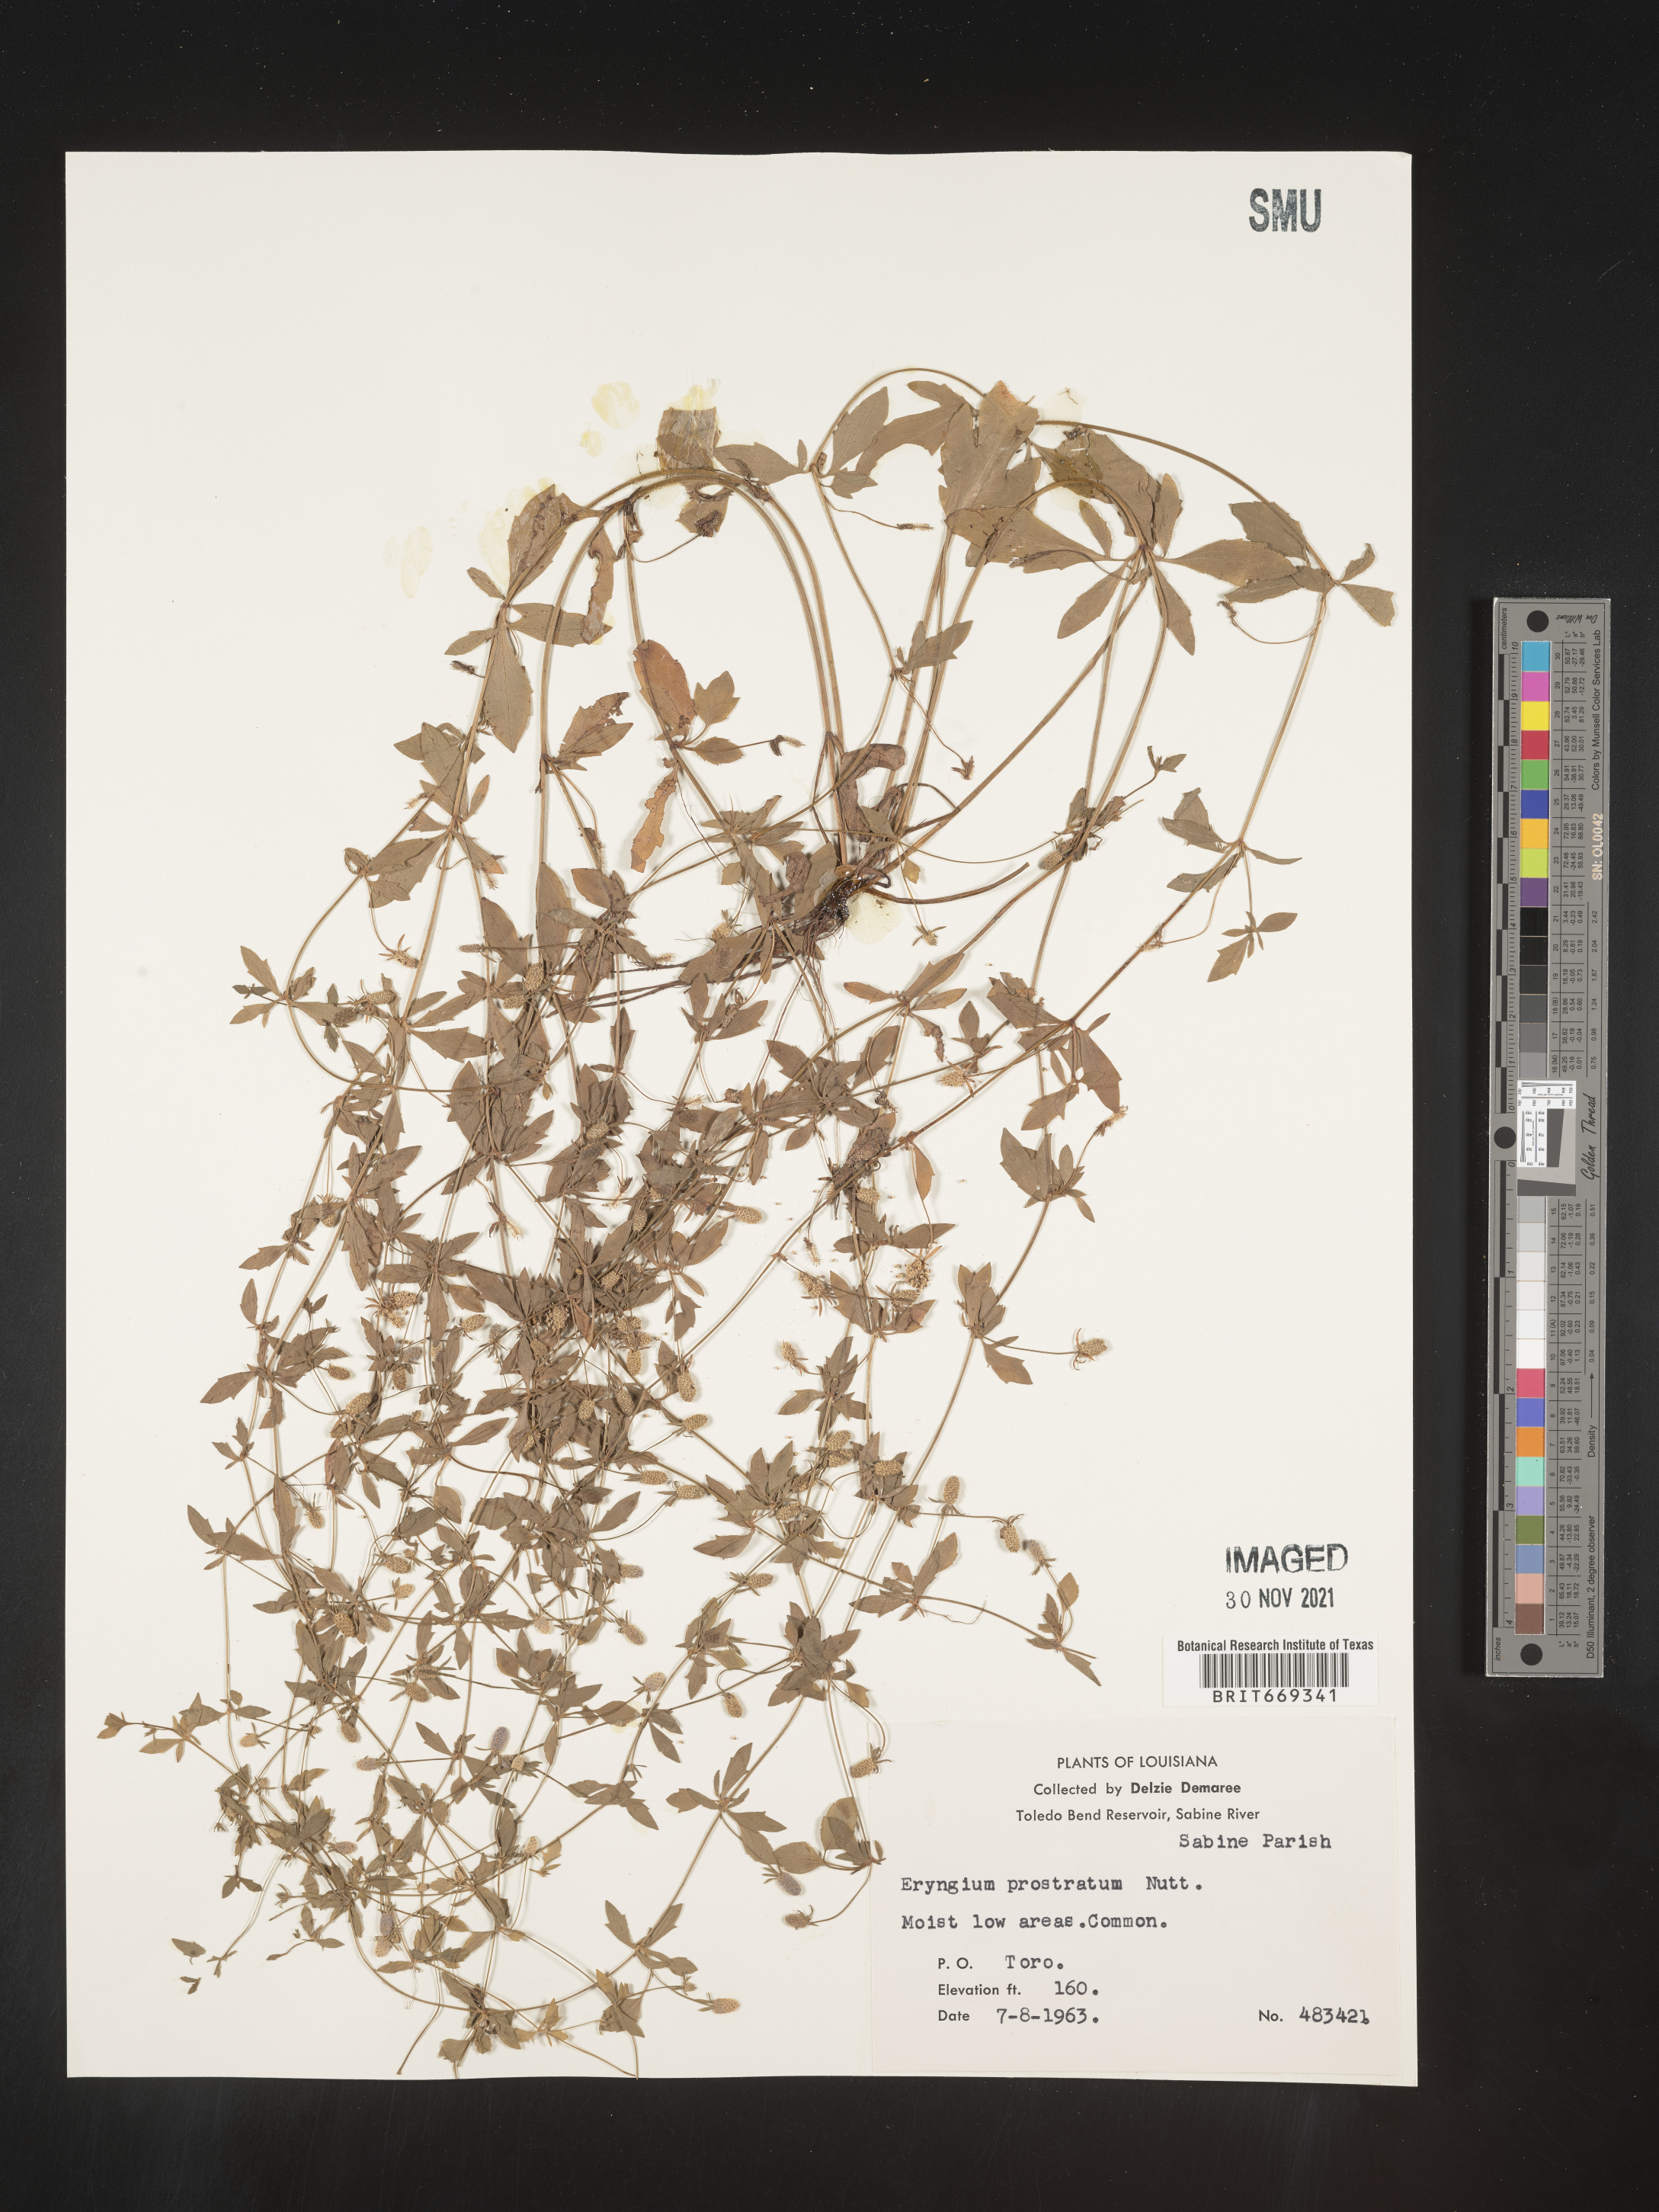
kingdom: Plantae
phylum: Tracheophyta
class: Magnoliopsida
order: Apiales
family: Apiaceae
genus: Eryngium
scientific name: Eryngium prostratum
